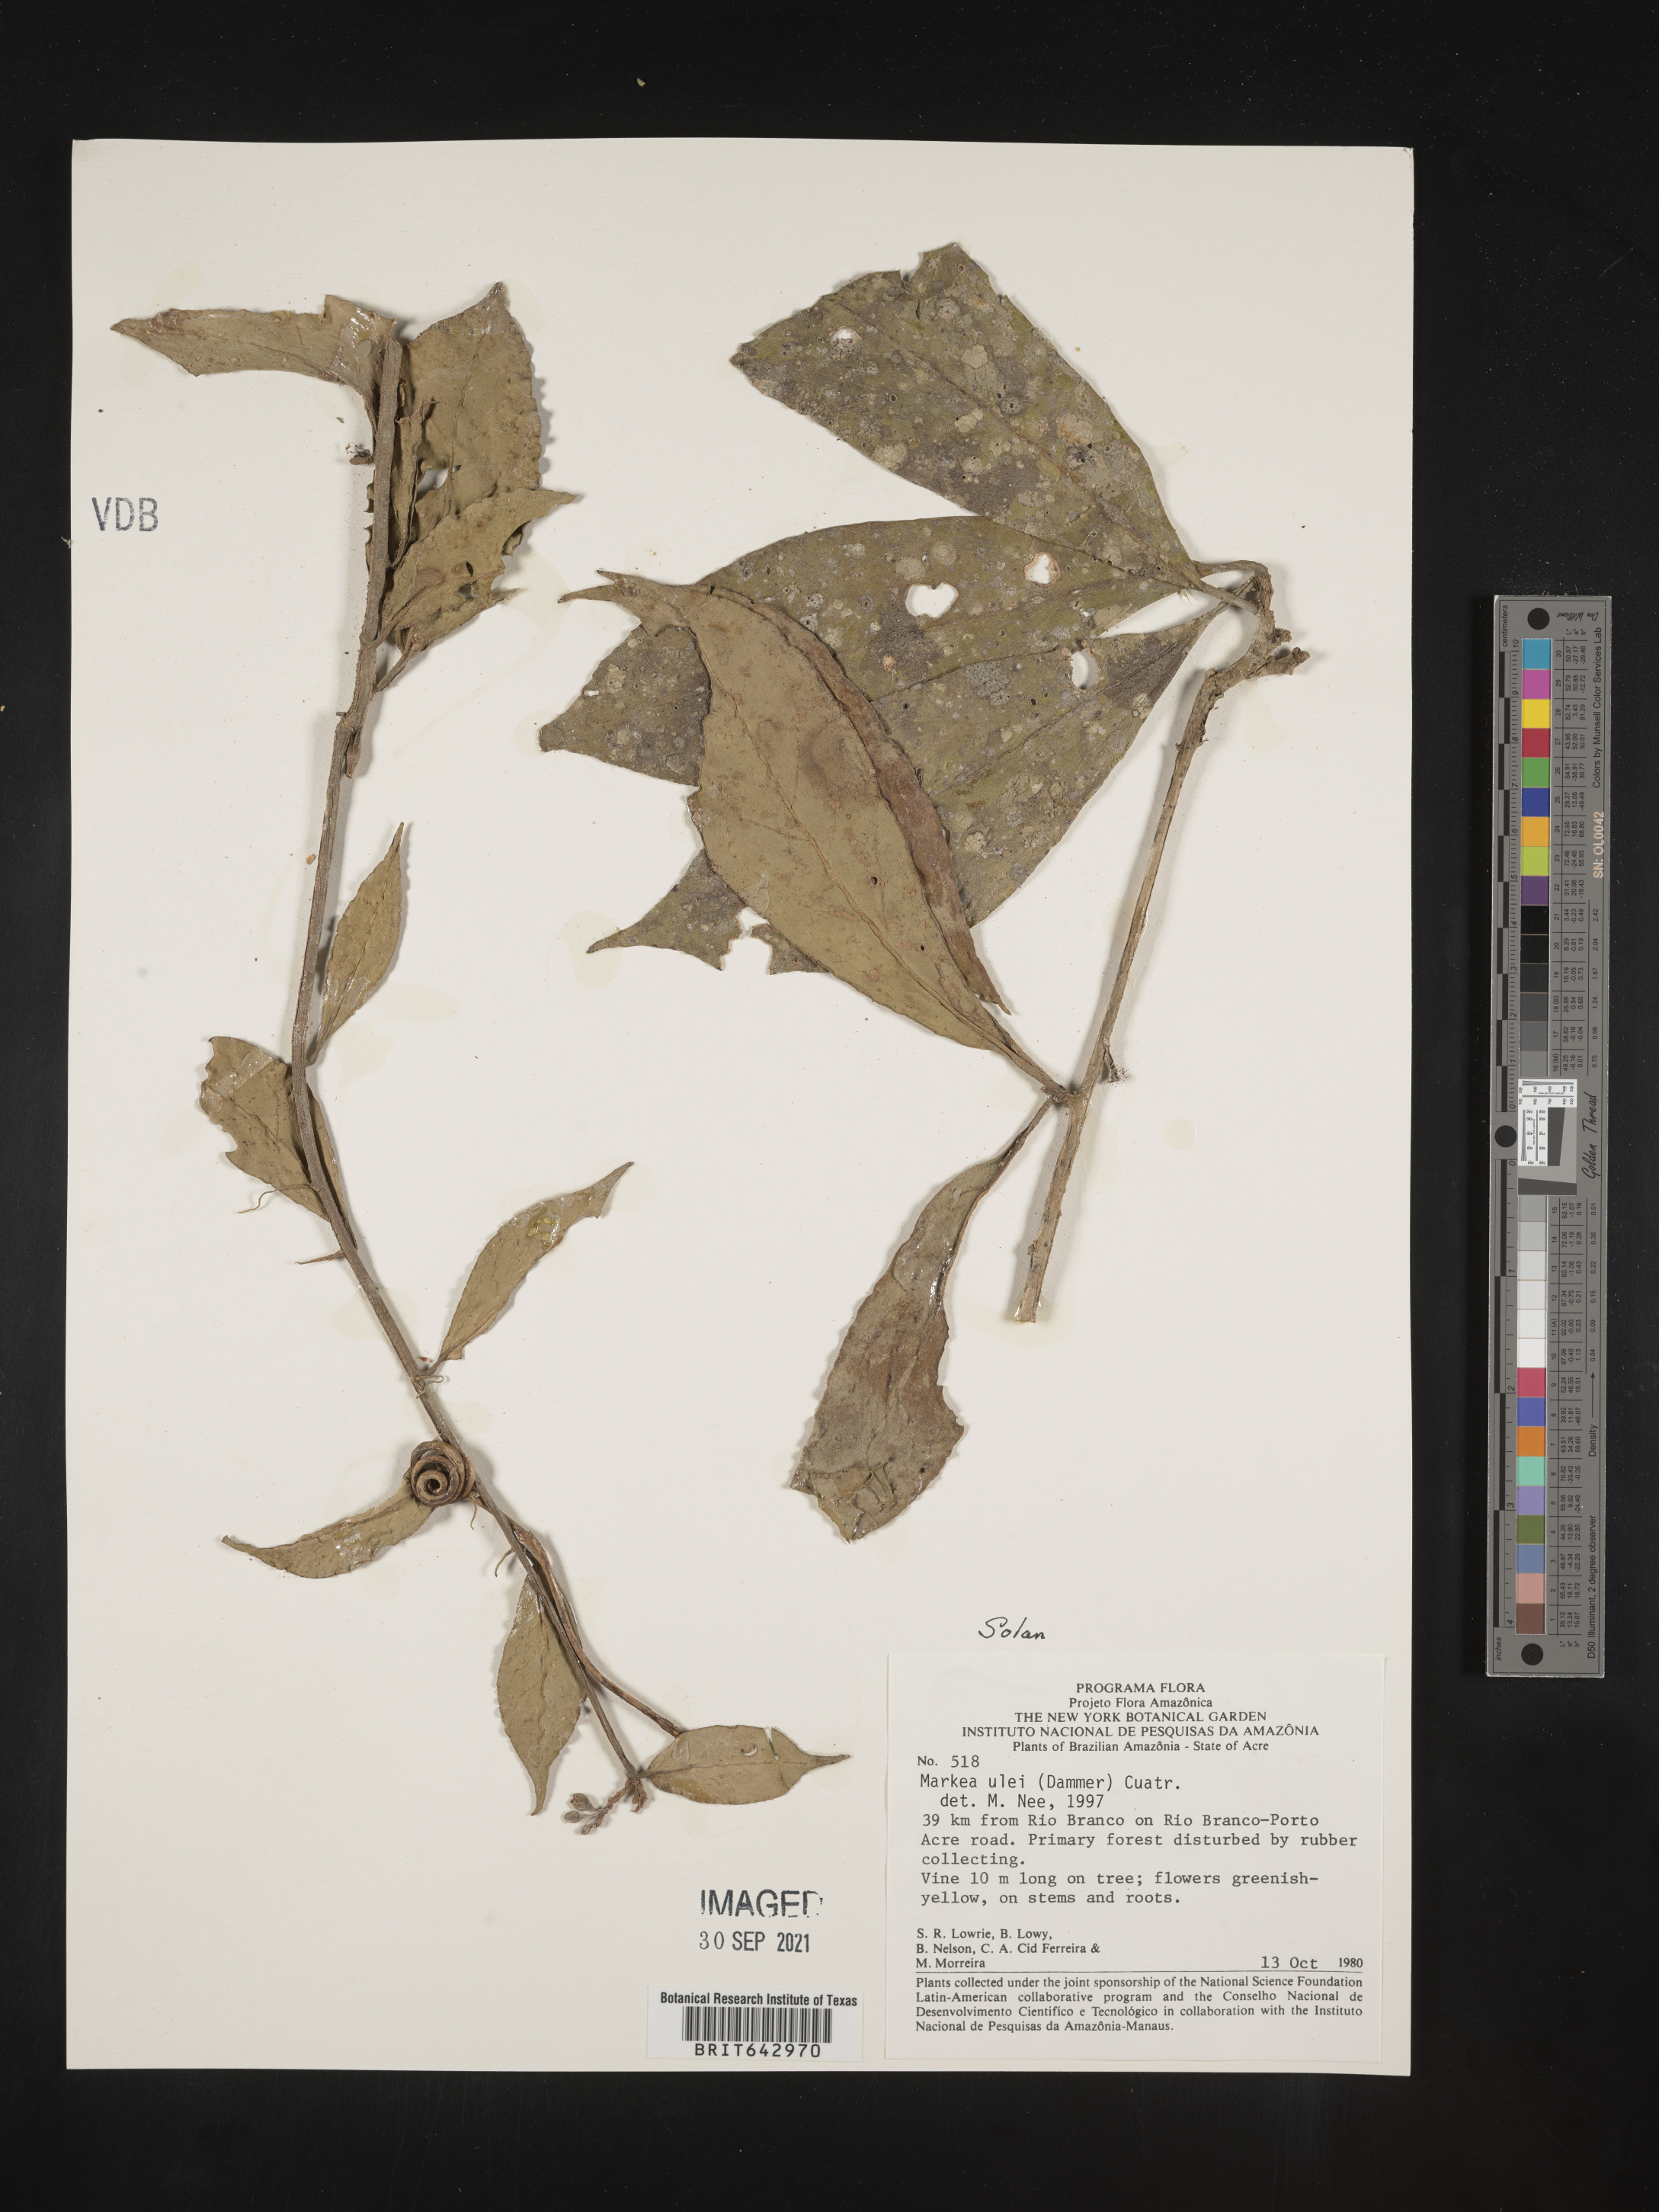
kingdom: Plantae
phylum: Tracheophyta
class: Magnoliopsida
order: Solanales
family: Solanaceae
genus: Markea
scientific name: Markea
